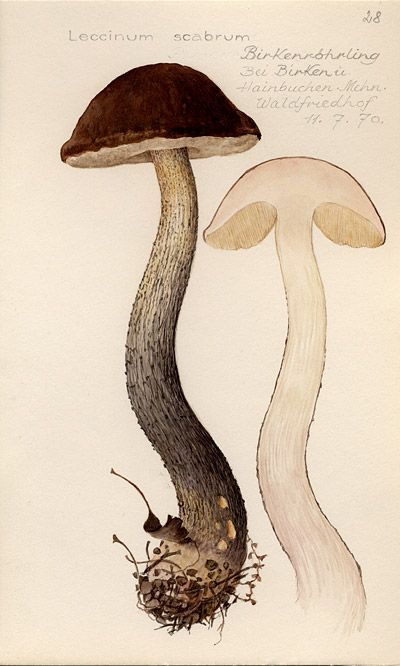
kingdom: Fungi
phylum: Basidiomycota
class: Agaricomycetes
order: Boletales
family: Boletaceae
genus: Leccinum
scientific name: Leccinum scabrum
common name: Blushing bolete
